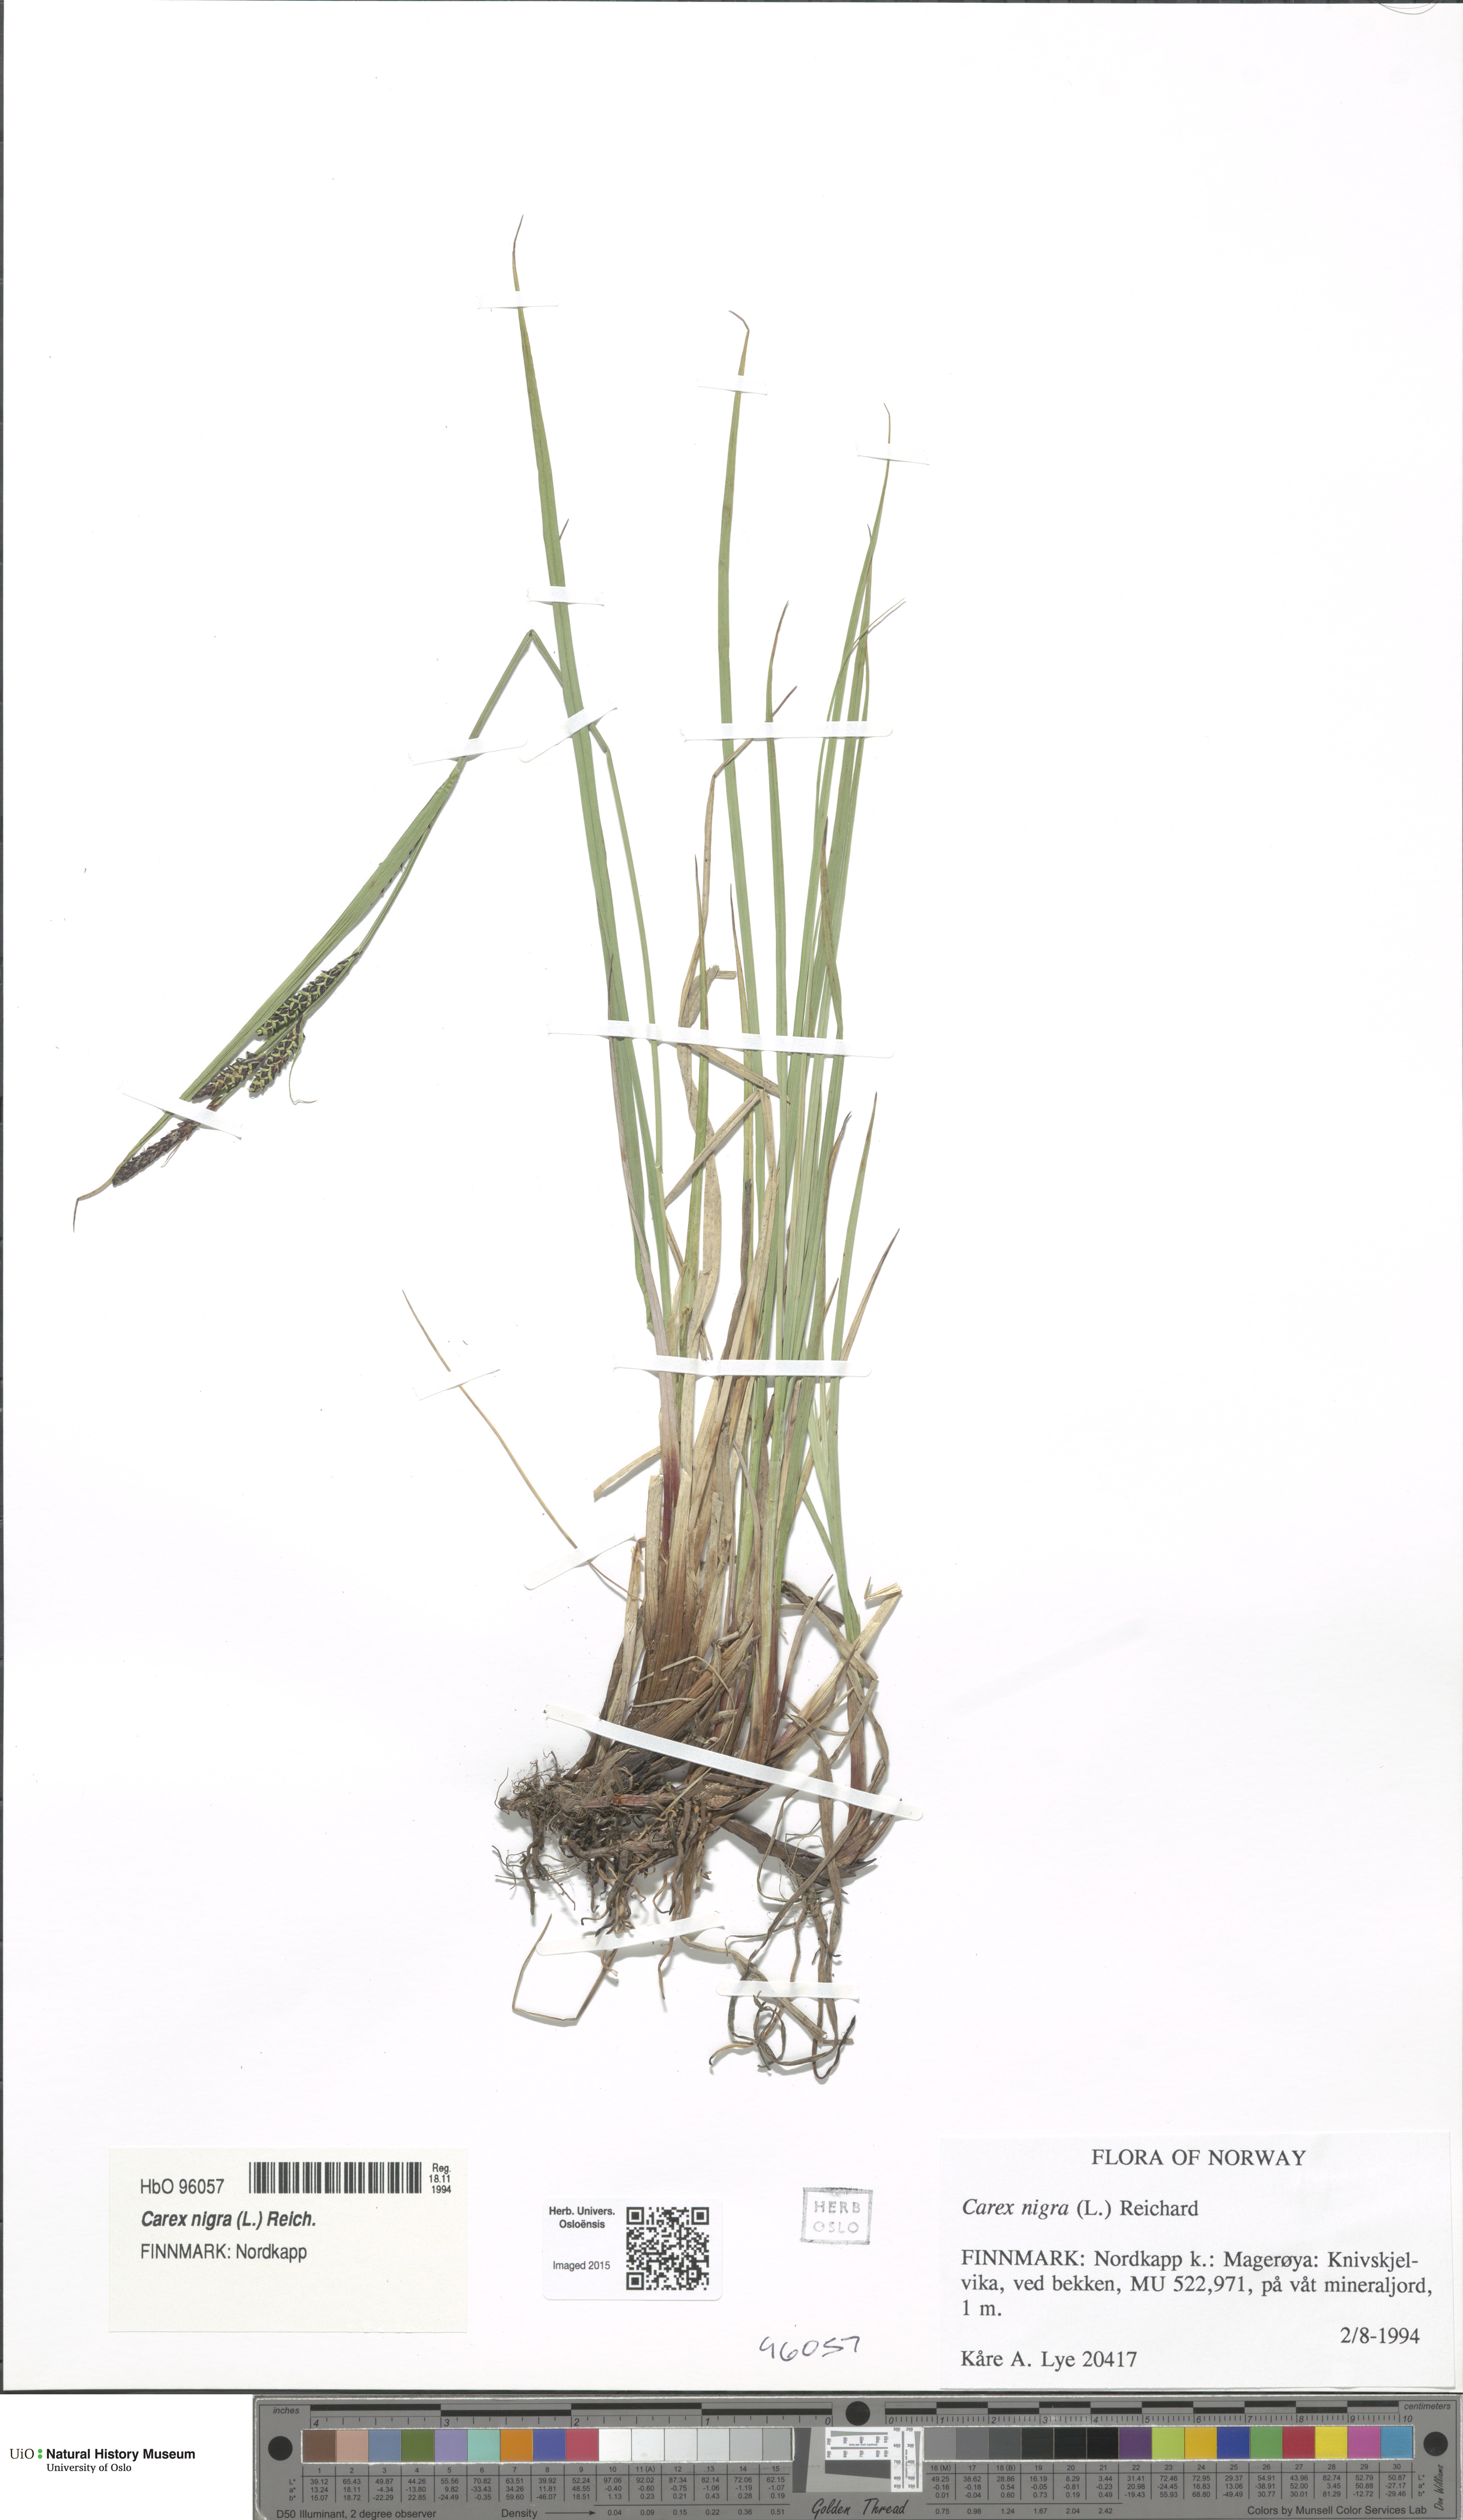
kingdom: Plantae
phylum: Tracheophyta
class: Liliopsida
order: Poales
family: Cyperaceae
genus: Carex
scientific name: Carex nigra
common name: Common sedge
